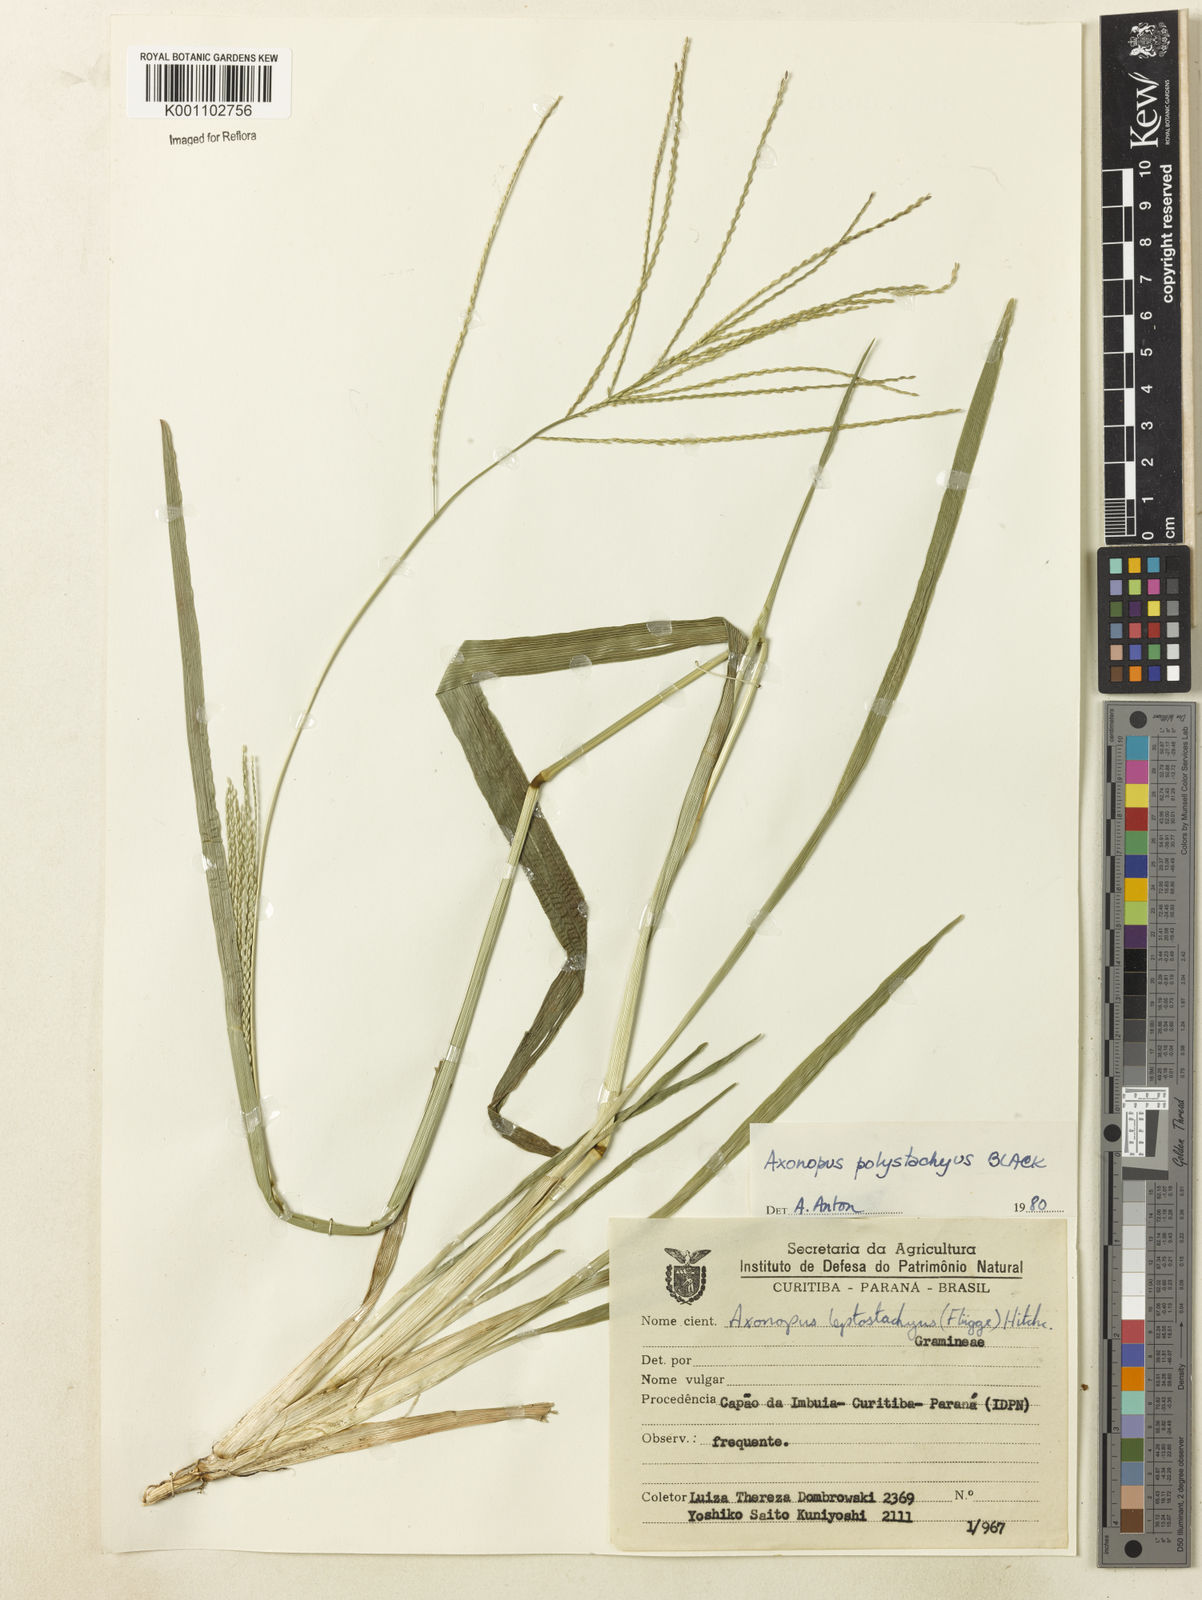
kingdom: Plantae
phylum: Tracheophyta
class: Liliopsida
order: Poales
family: Poaceae
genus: Axonopus
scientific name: Axonopus polystachyus
